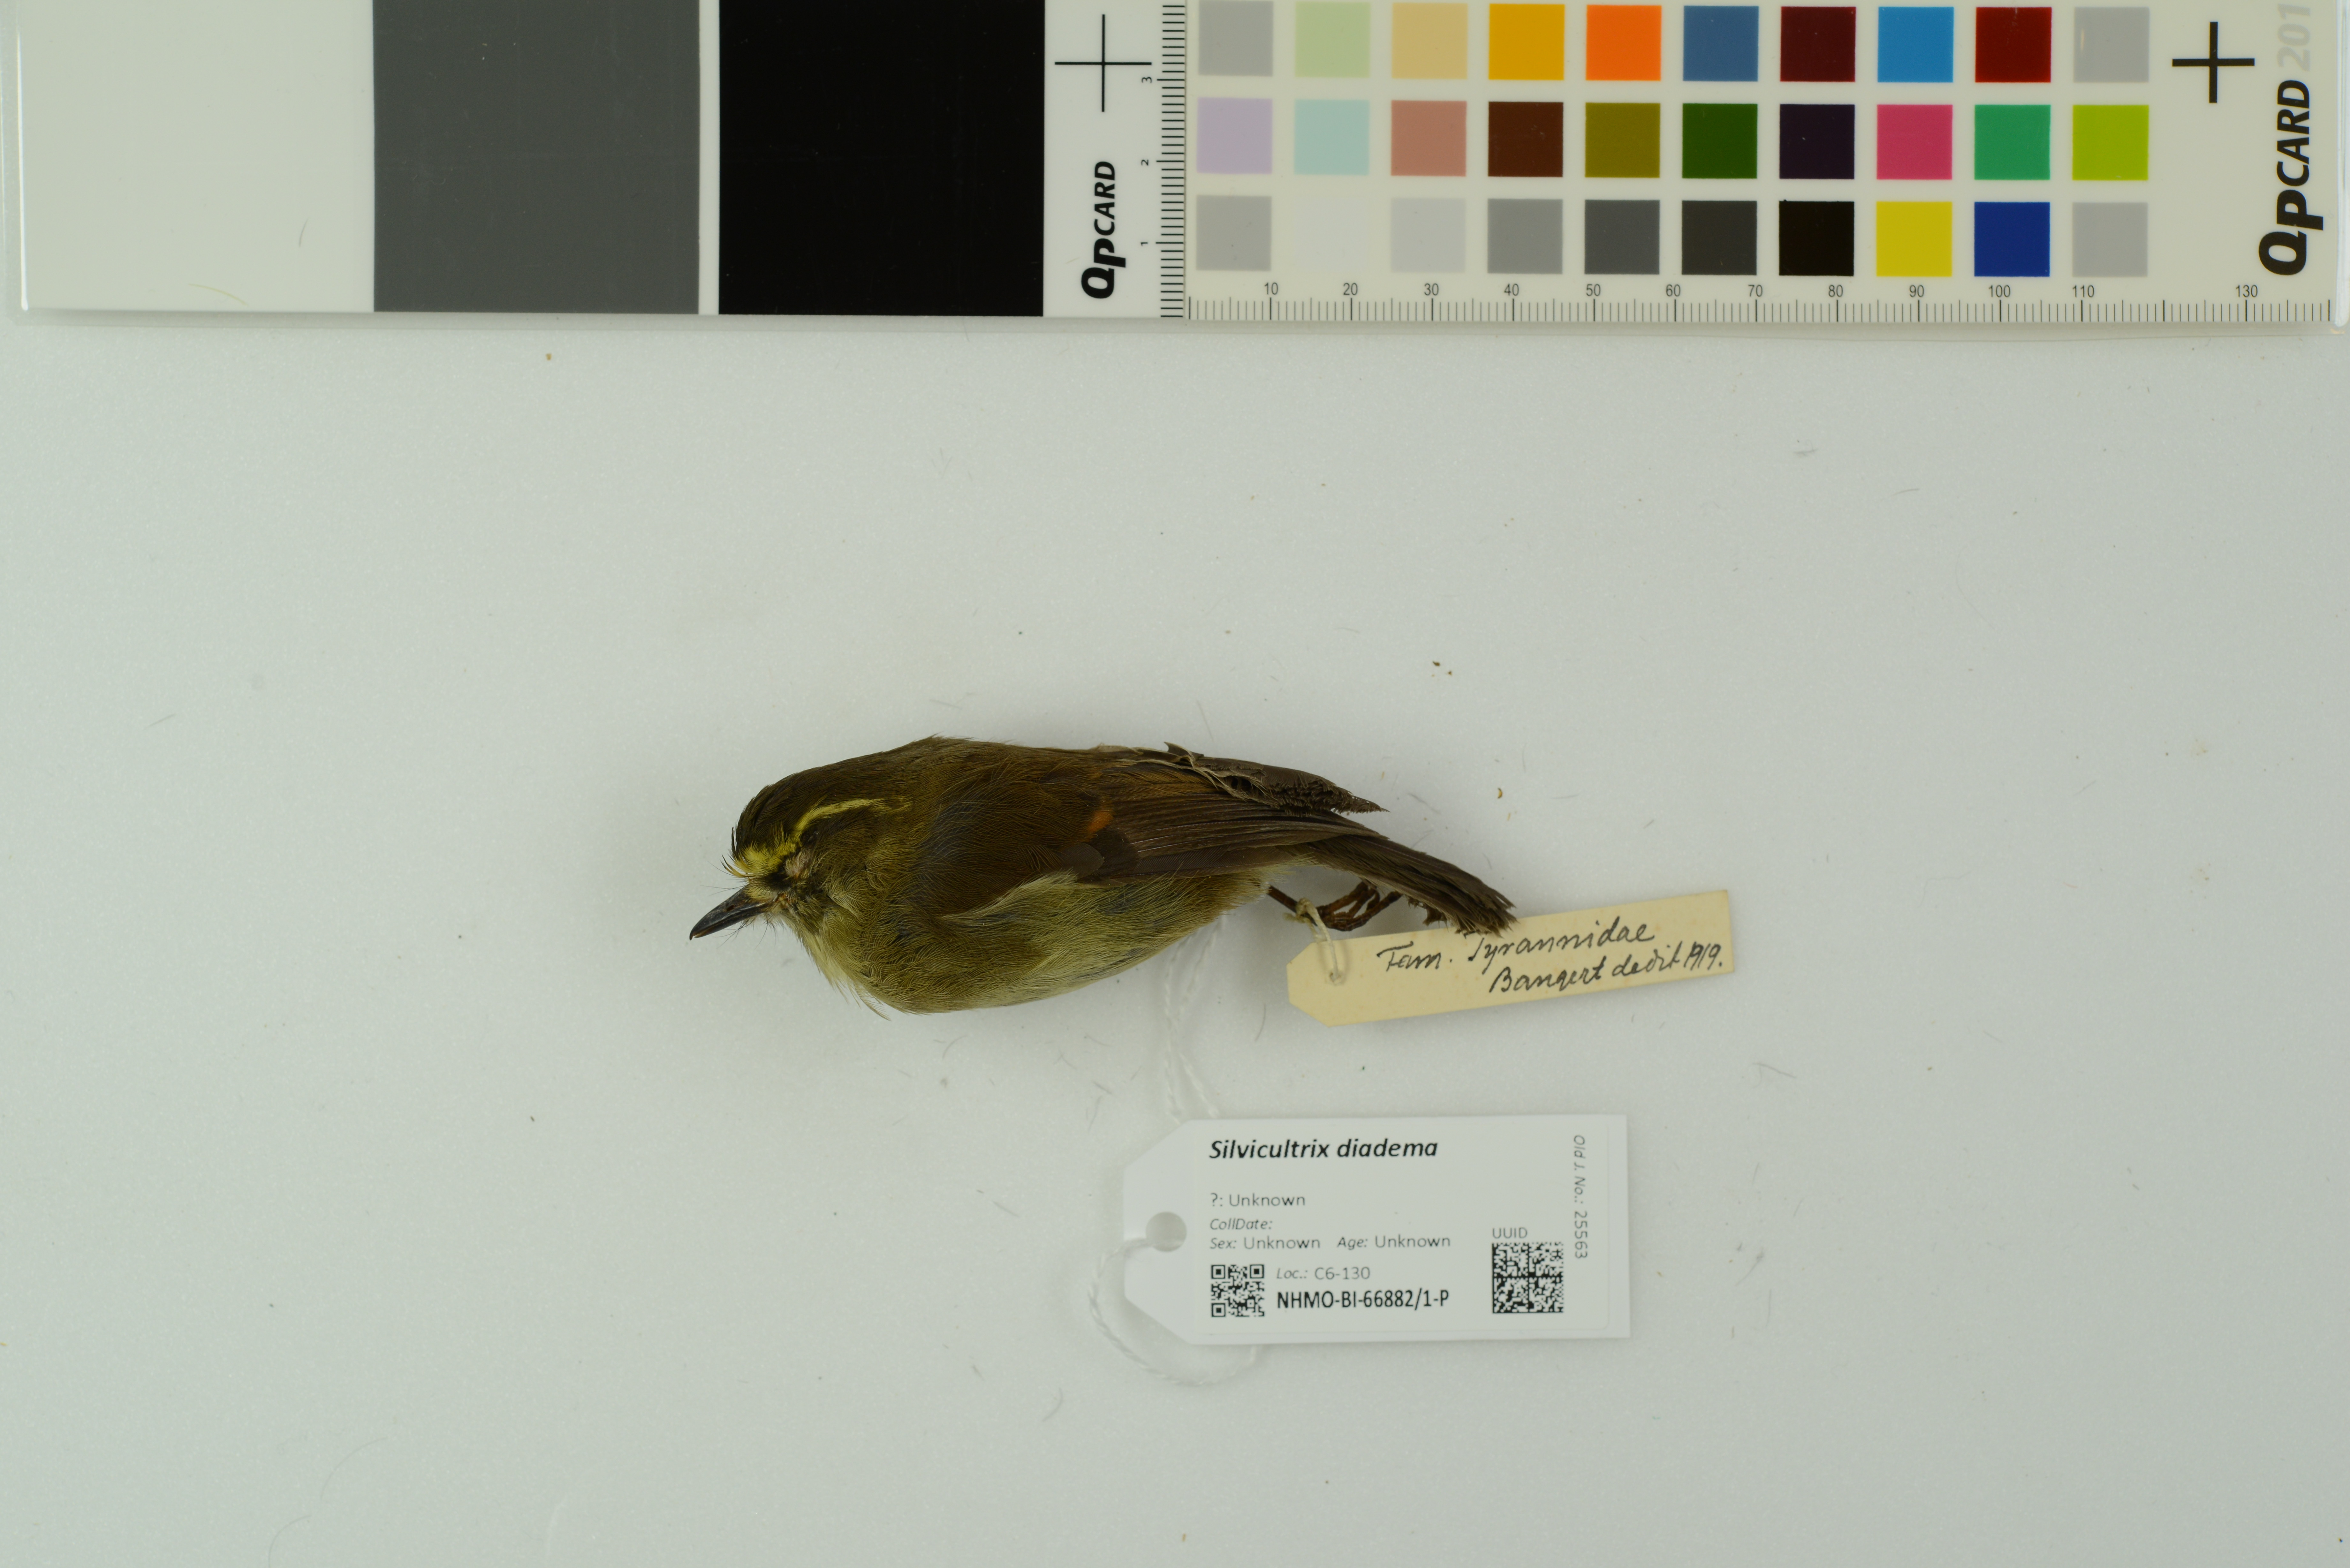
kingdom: Animalia
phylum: Chordata
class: Aves
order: Passeriformes
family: Tyrannidae
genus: Ochthoeca
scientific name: Ochthoeca diadema
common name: Yellow-bellied chat-tyrant
